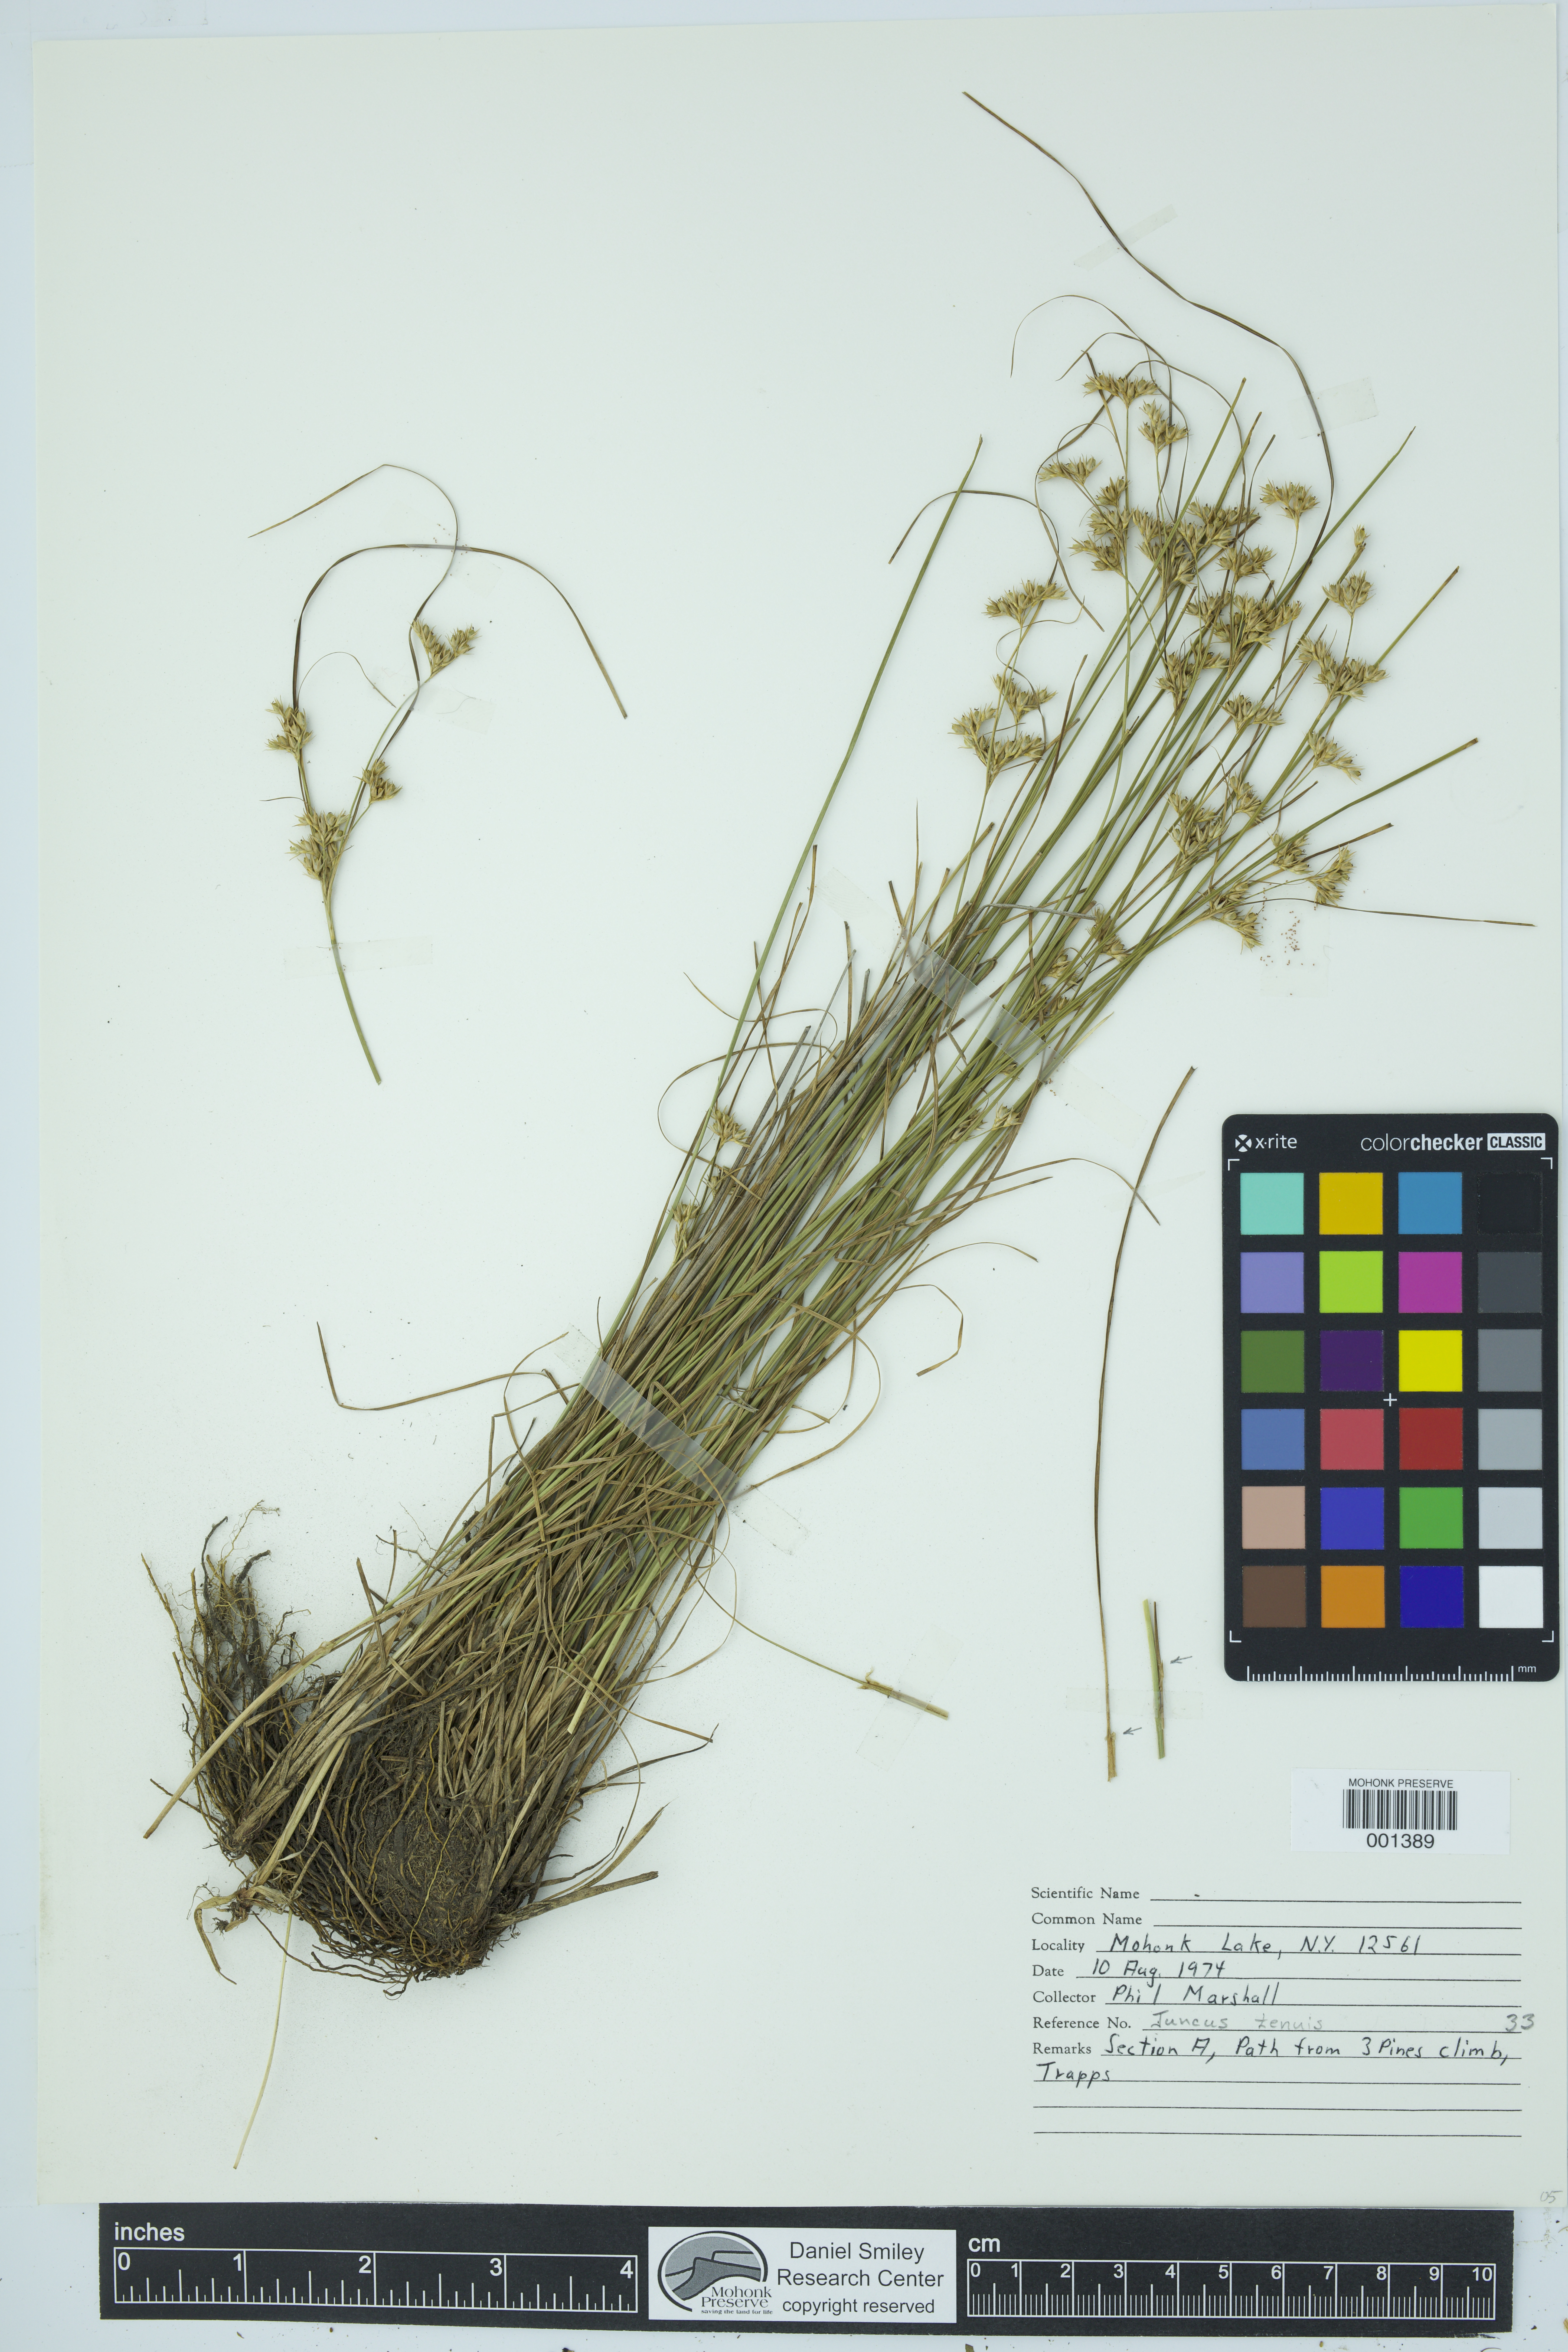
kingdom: Plantae
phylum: Tracheophyta
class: Liliopsida
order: Poales
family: Juncaceae
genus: Juncus
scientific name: Juncus tenuis
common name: Slender rush
